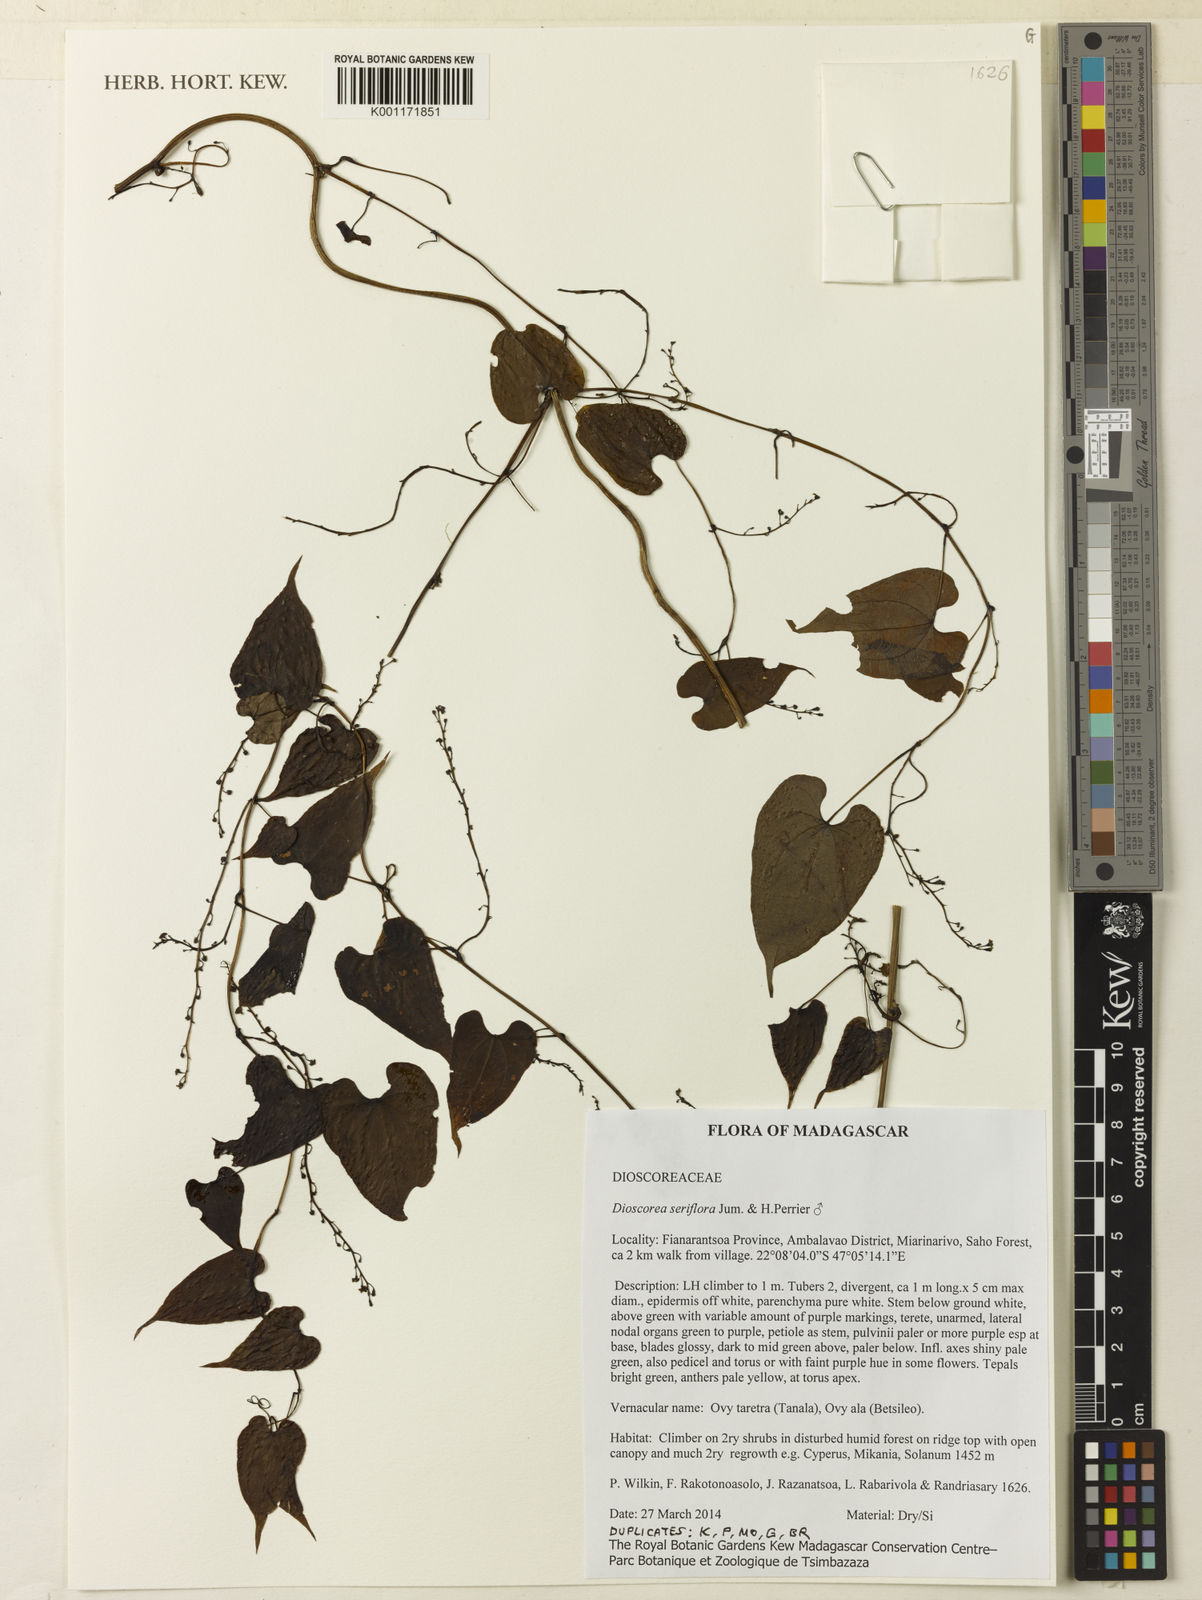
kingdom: Plantae
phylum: Tracheophyta
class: Liliopsida
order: Dioscoreales
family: Dioscoreaceae
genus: Dioscorea
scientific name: Dioscorea seriflora
